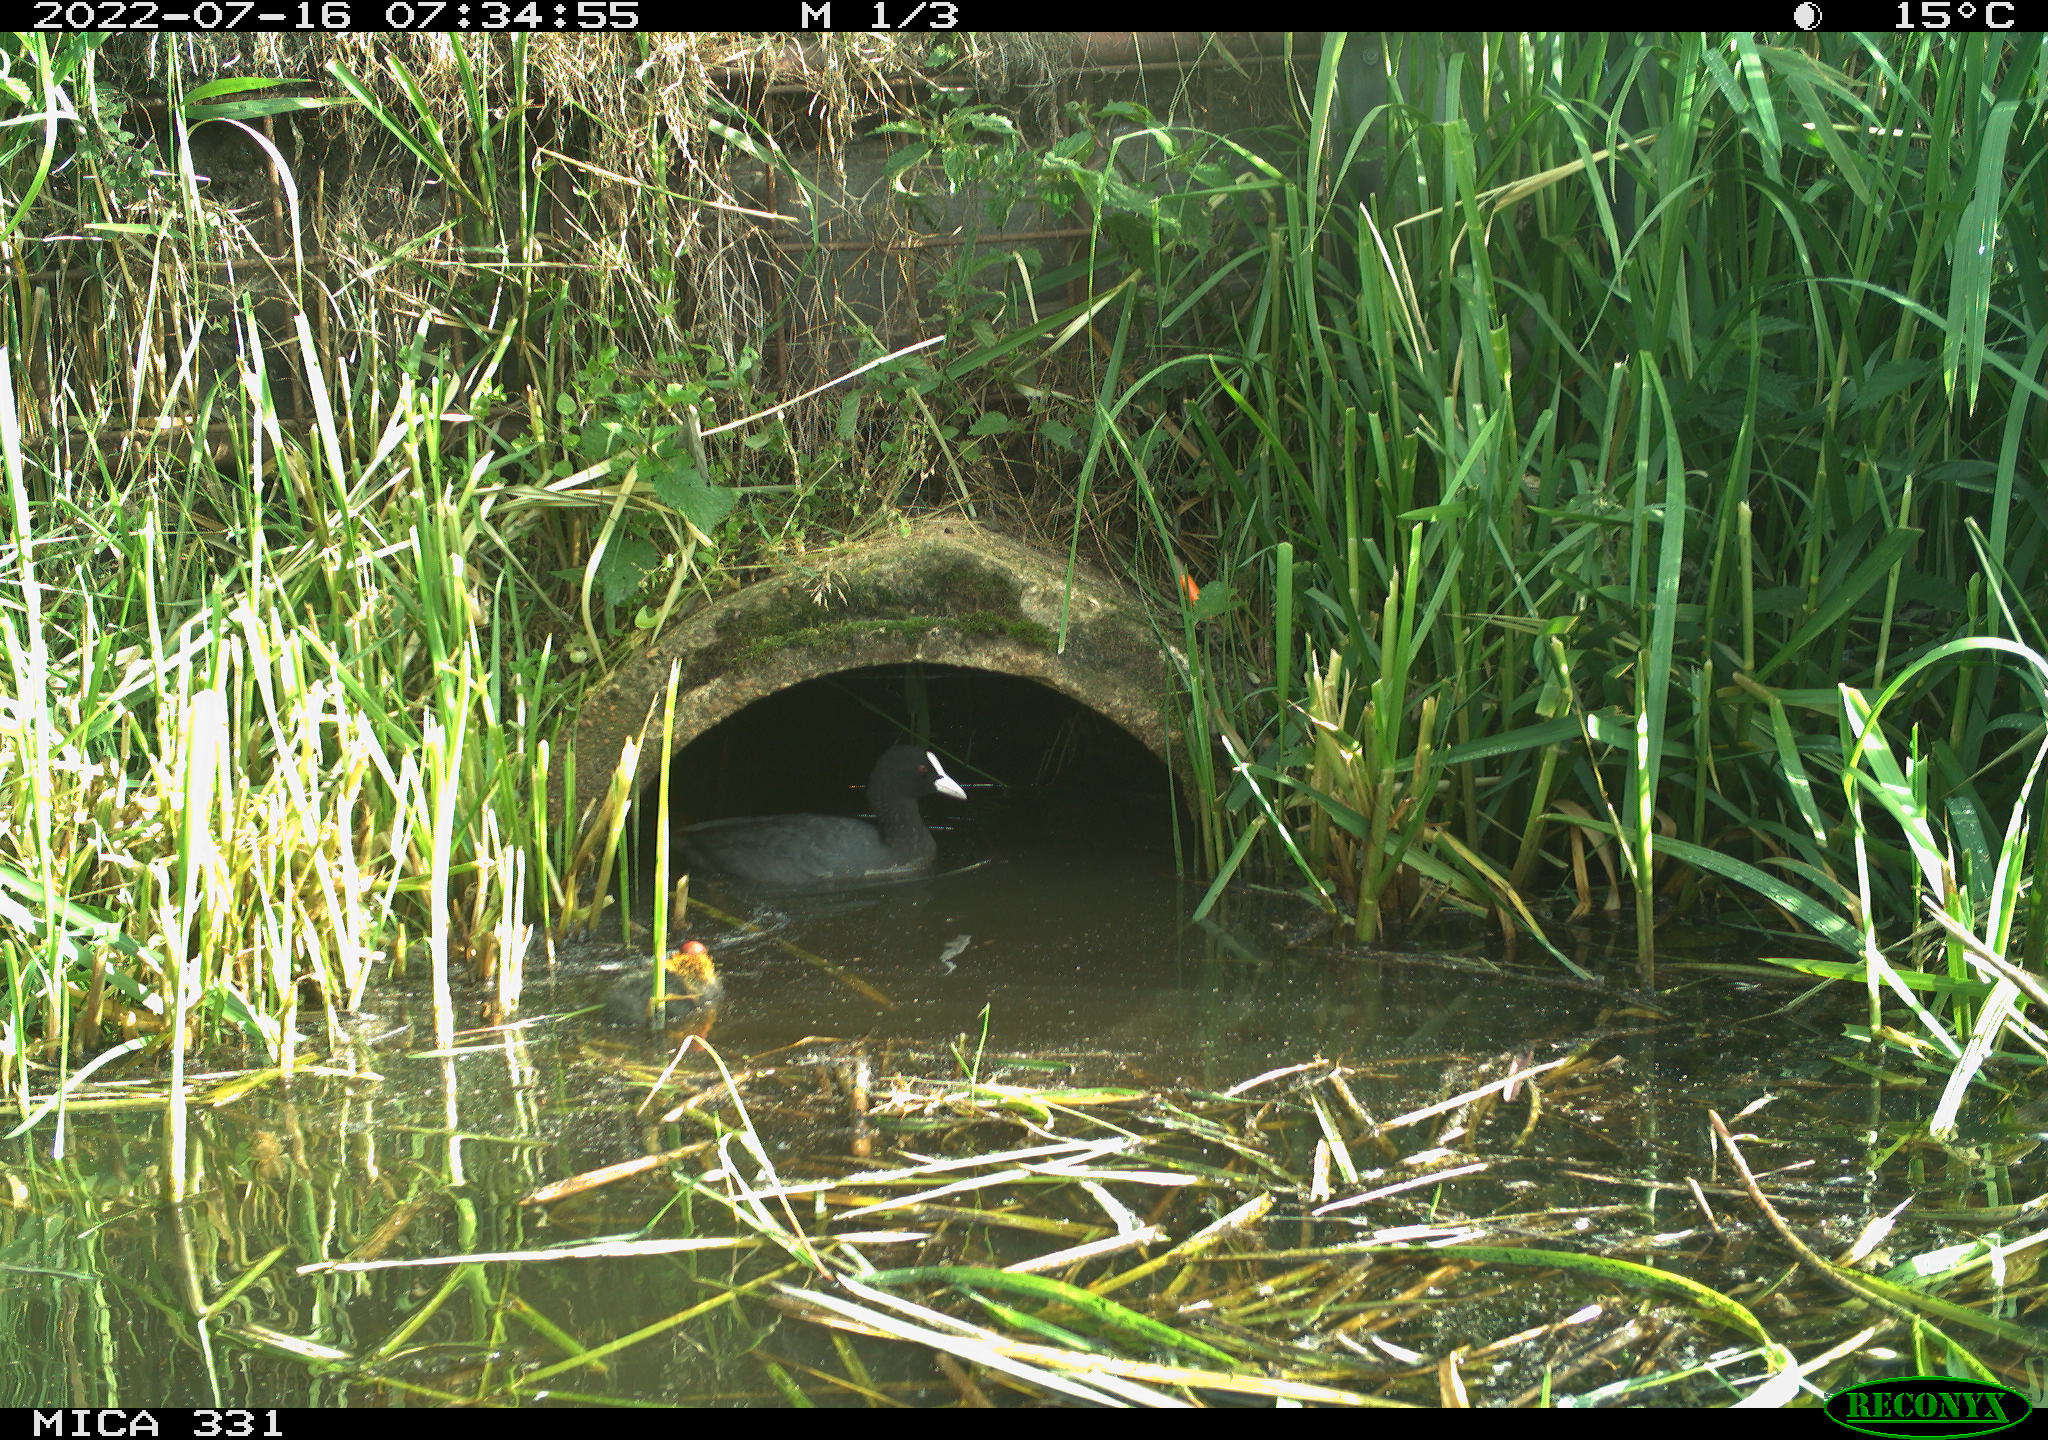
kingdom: Animalia
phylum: Chordata
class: Aves
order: Gruiformes
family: Rallidae
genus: Fulica
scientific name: Fulica atra
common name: Eurasian coot
